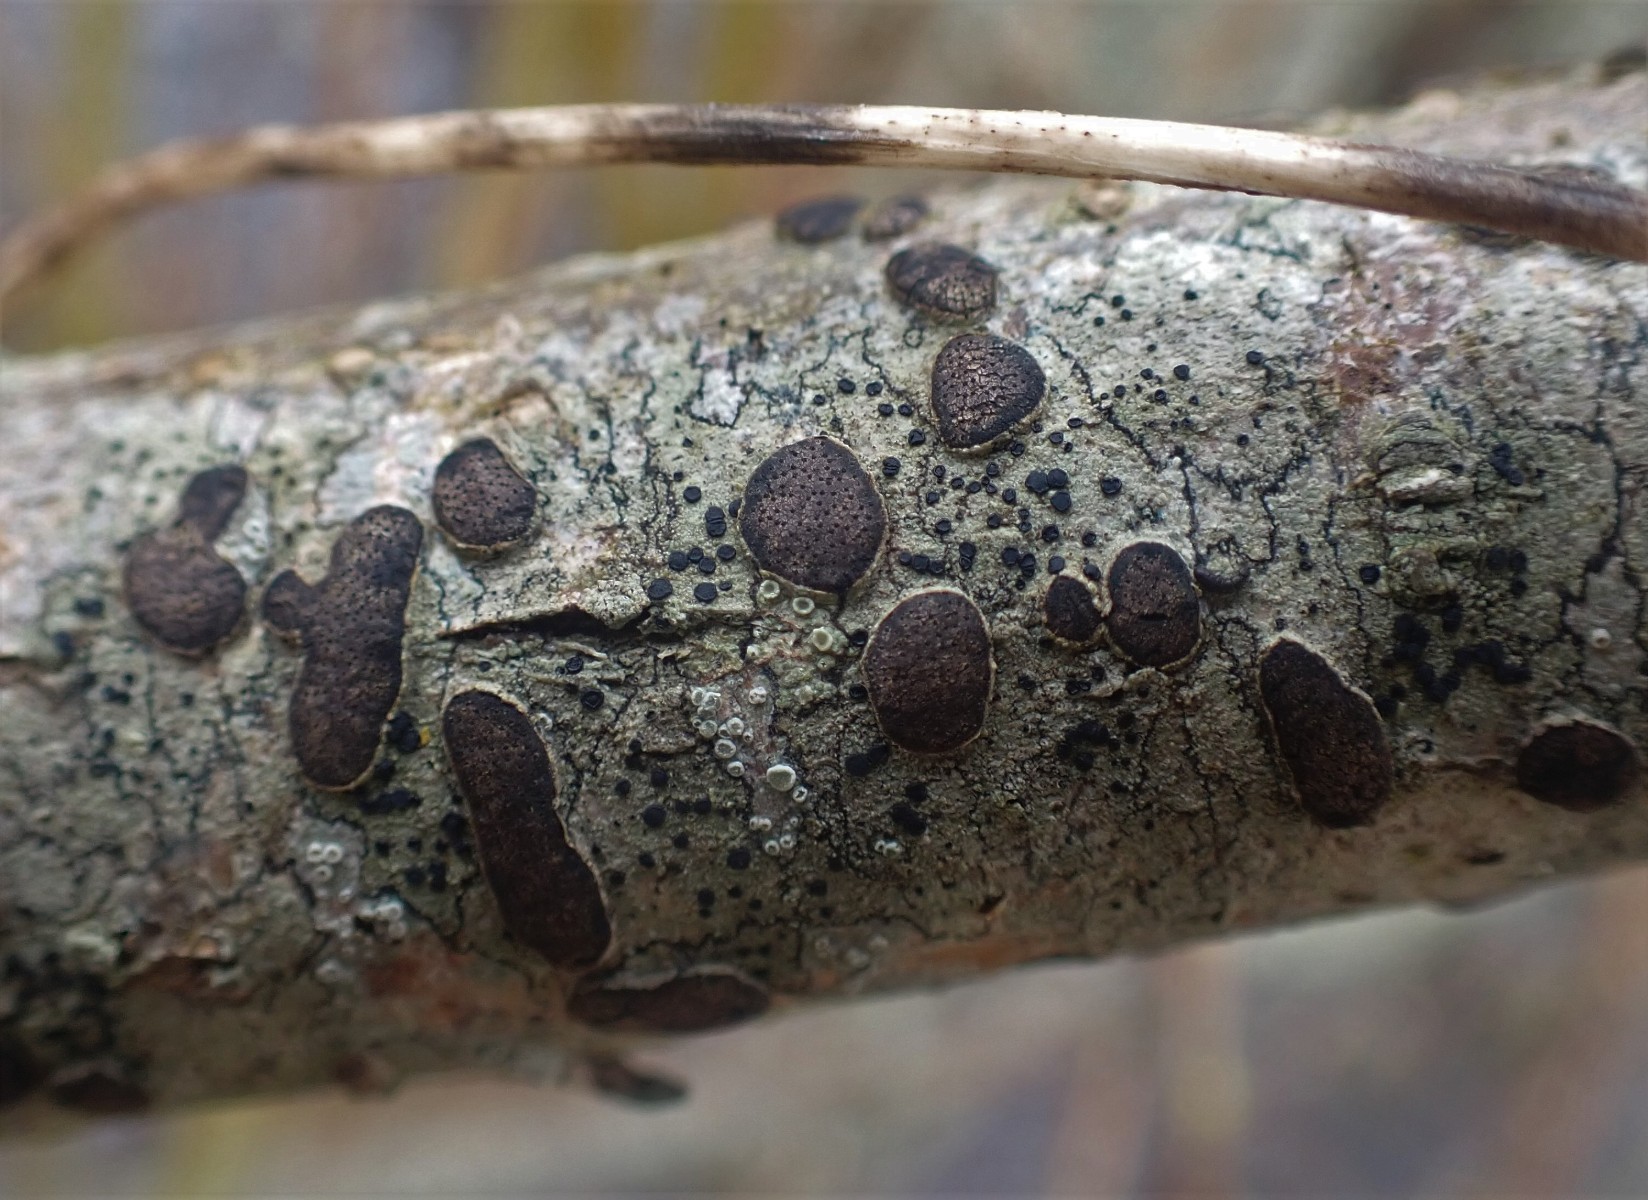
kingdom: Fungi
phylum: Ascomycota
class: Sordariomycetes
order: Xylariales
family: Diatrypaceae
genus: Diatrype
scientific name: Diatrype bullata
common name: pile-kulskorpe
